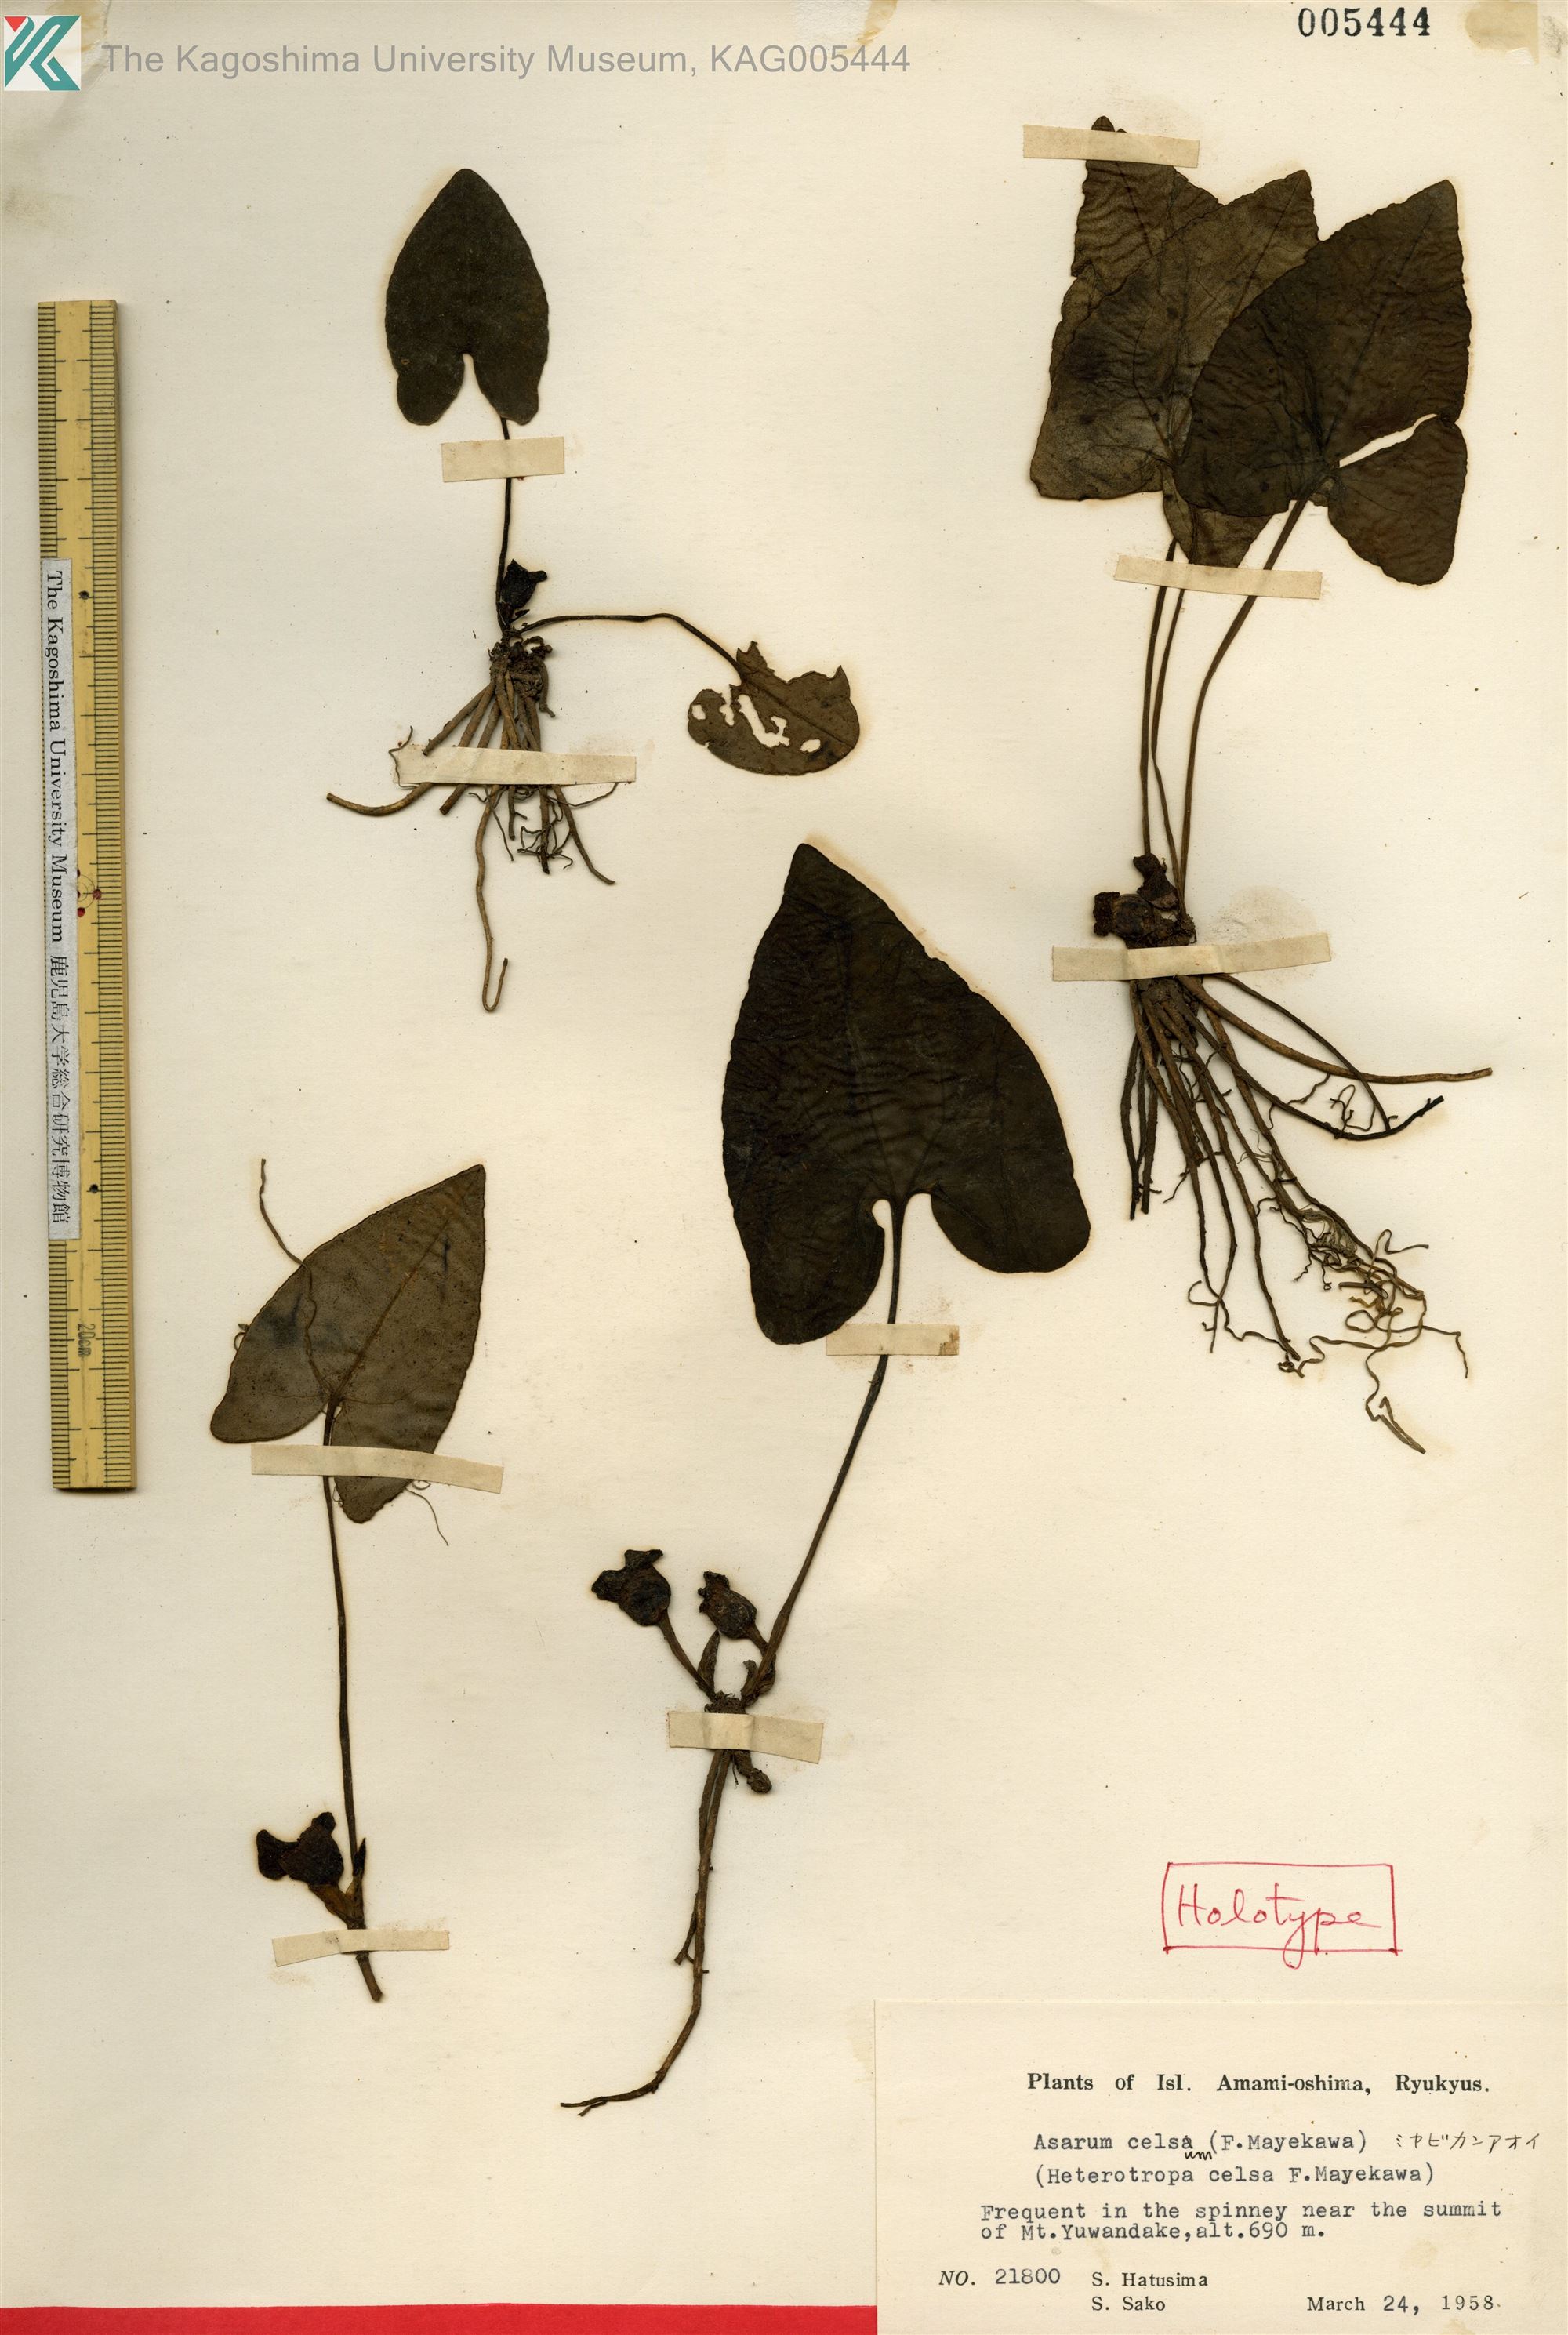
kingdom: Plantae
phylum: Tracheophyta
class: Magnoliopsida
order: Piperales
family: Aristolochiaceae
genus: Asarum
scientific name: Asarum celsum
